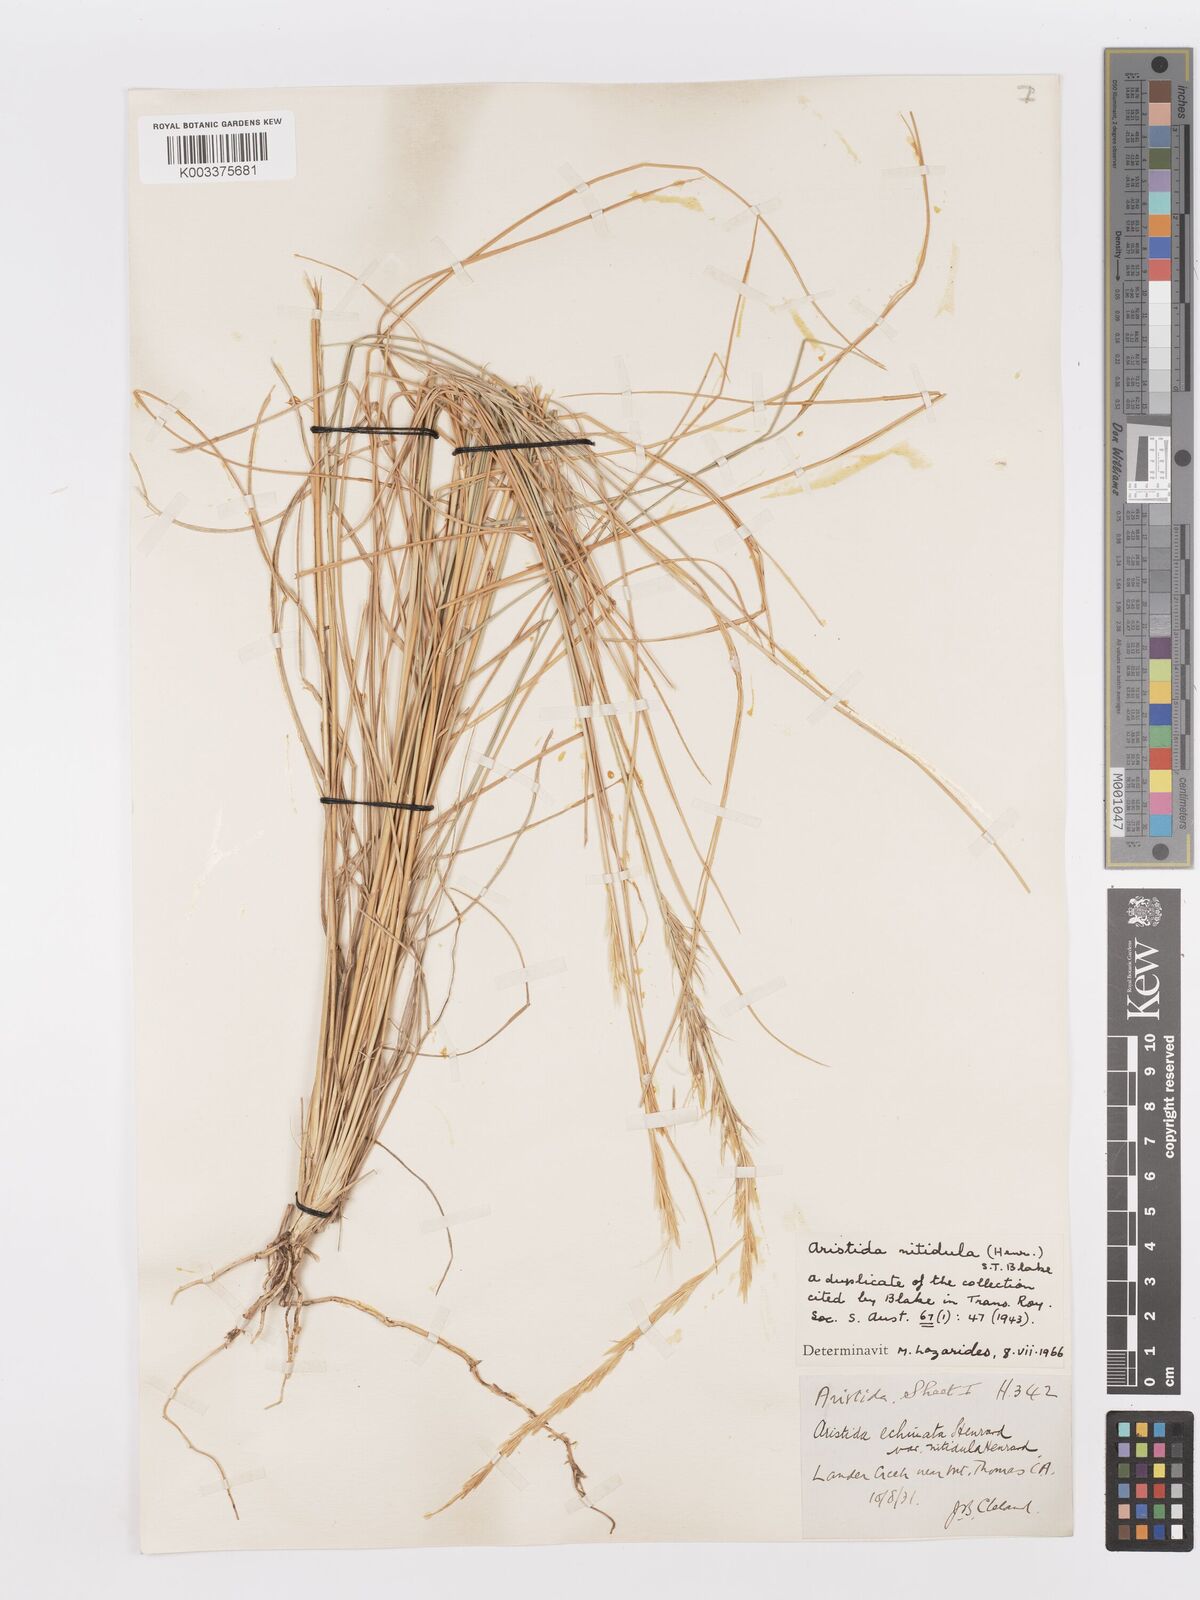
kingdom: Plantae
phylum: Tracheophyta
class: Liliopsida
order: Poales
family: Poaceae
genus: Aristida
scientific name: Aristida nitidula
